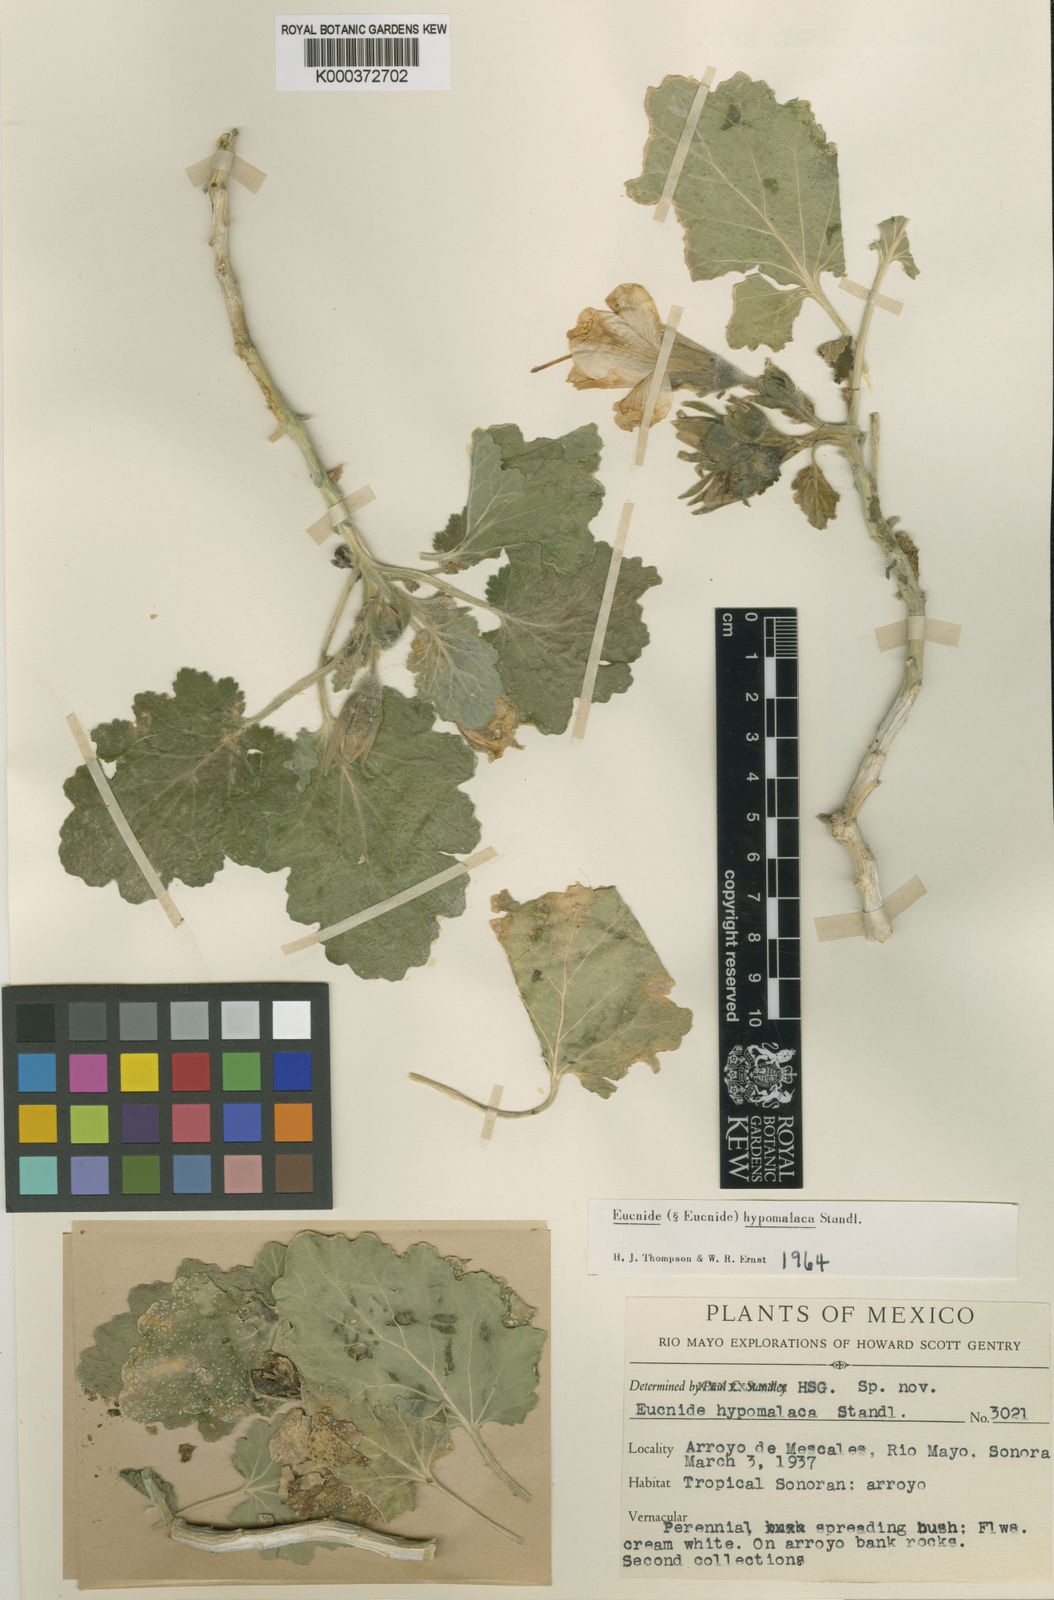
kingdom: Plantae
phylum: Tracheophyta
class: Magnoliopsida
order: Cornales
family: Loasaceae
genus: Eucnide
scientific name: Eucnide hypomalaca
